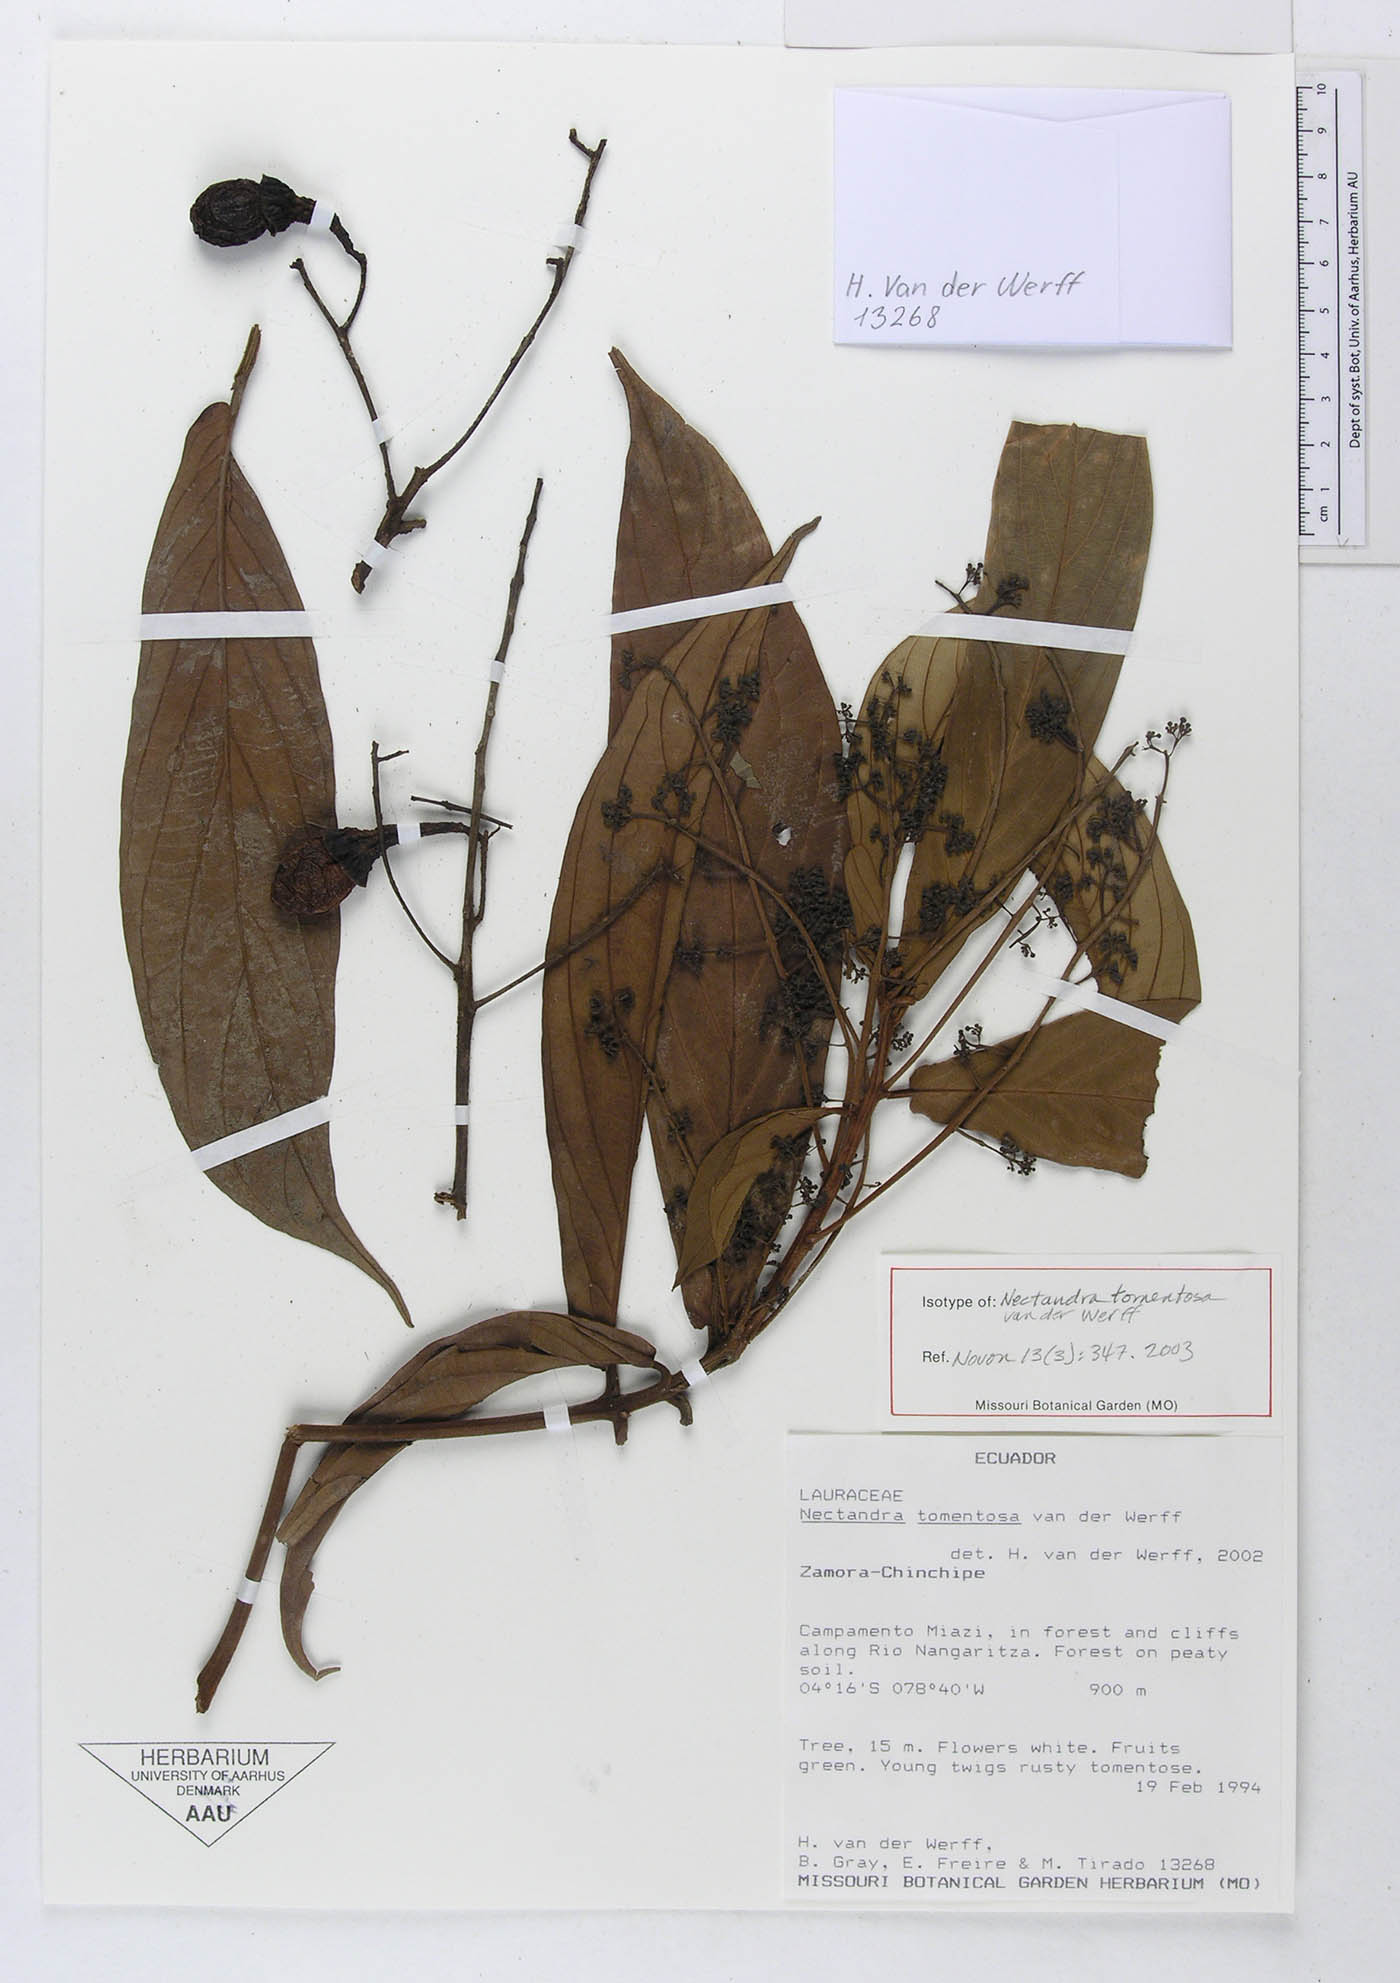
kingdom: Plantae
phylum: Tracheophyta
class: Magnoliopsida
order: Laurales
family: Lauraceae
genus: Nectandra
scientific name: Nectandra tomentosa
